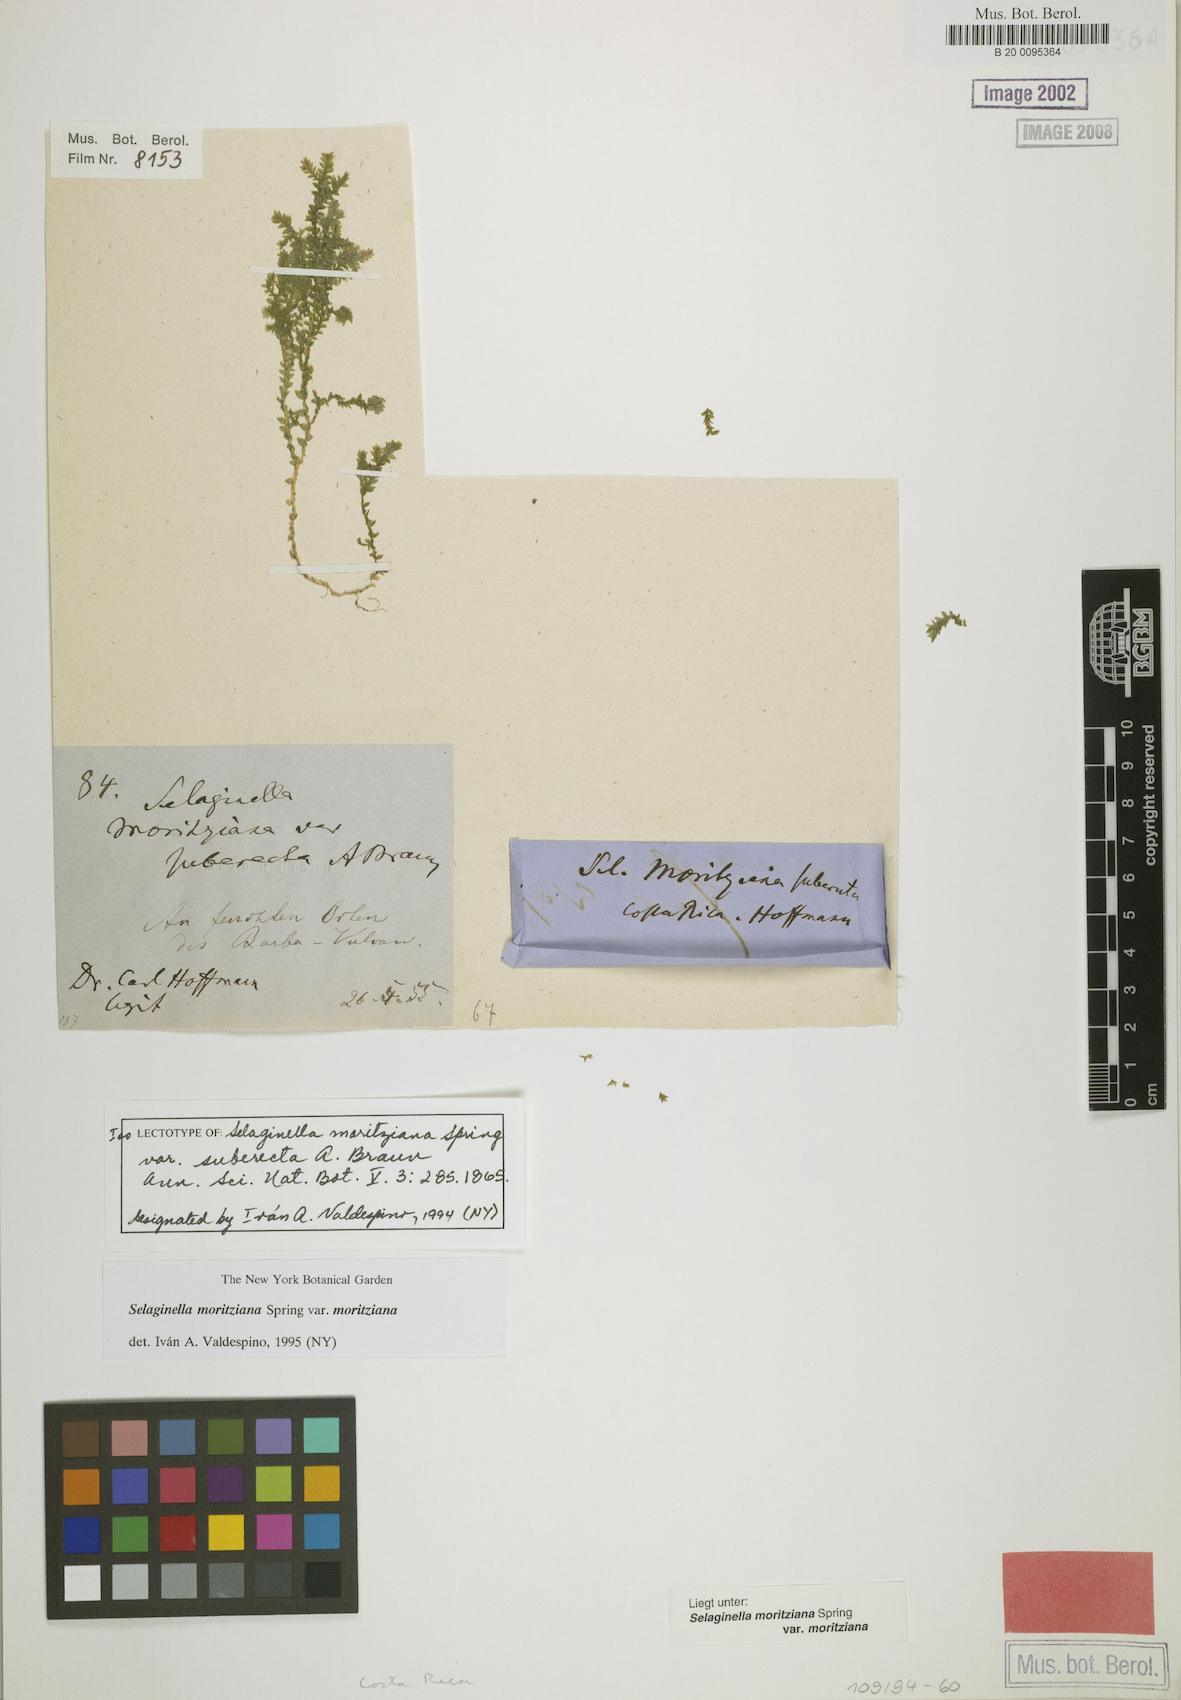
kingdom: Plantae
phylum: Tracheophyta
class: Lycopodiopsida
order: Selaginellales
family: Selaginellaceae
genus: Selaginella
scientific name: Selaginella moritziana
